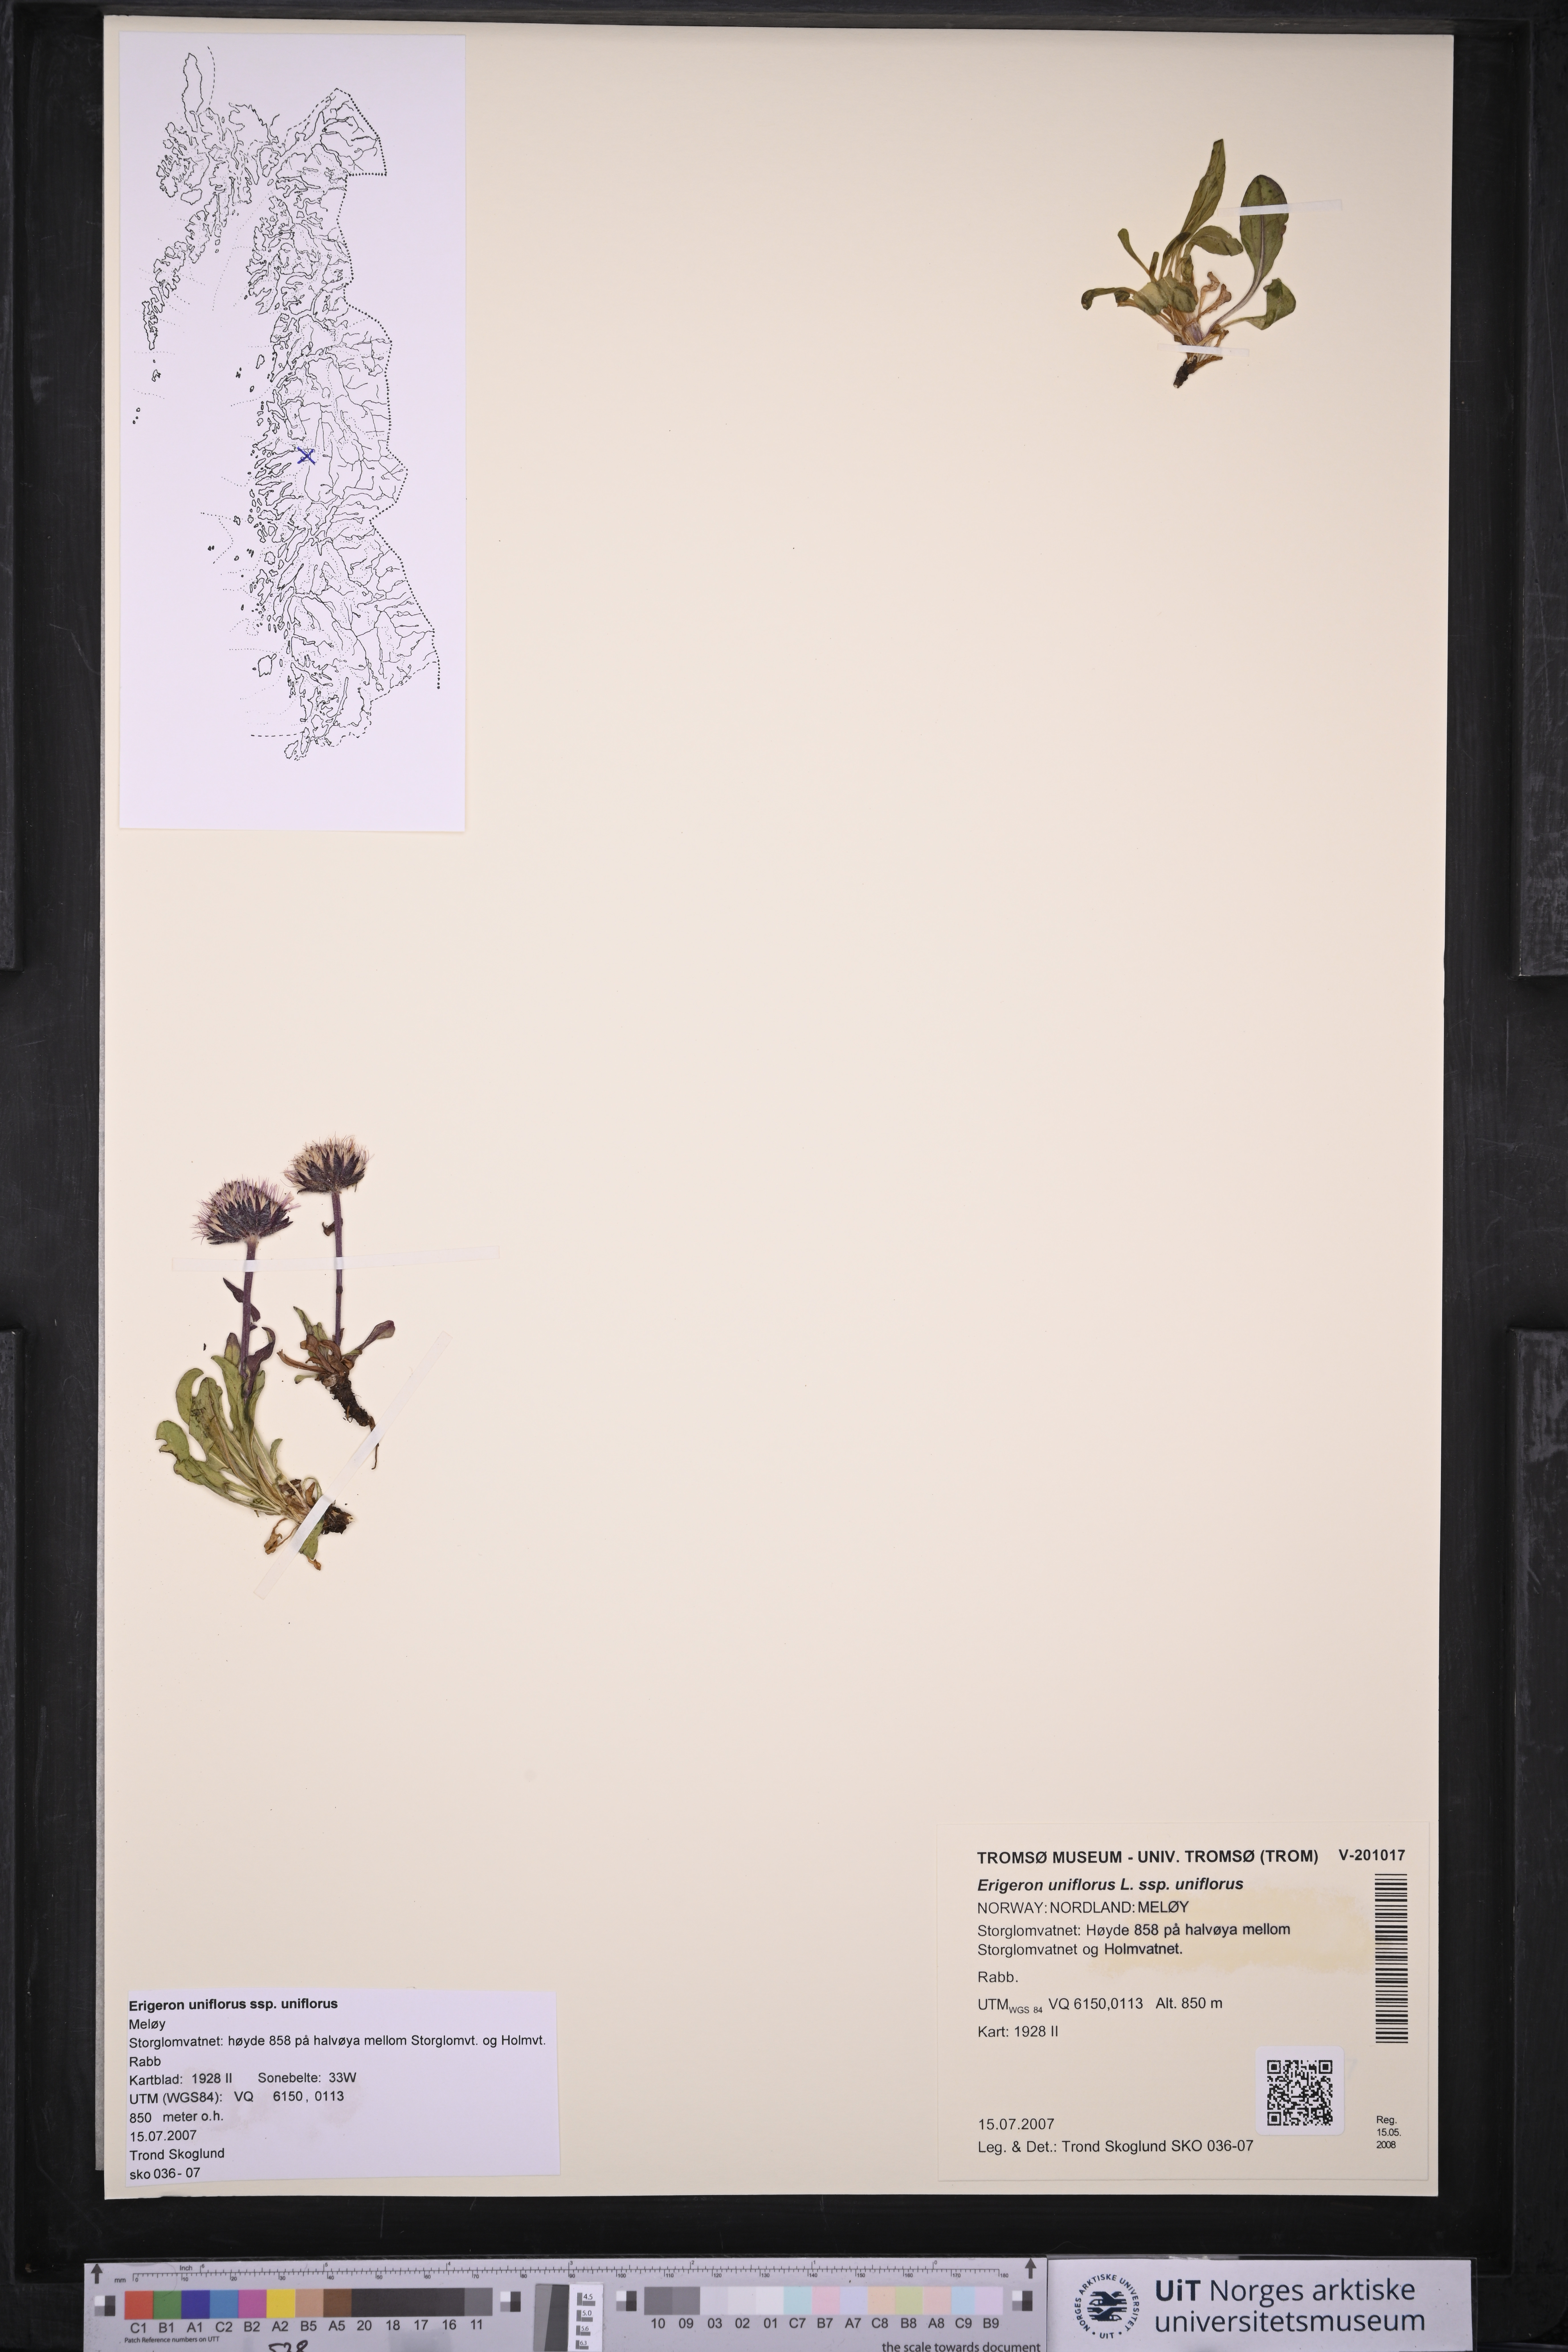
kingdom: Plantae
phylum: Tracheophyta
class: Magnoliopsida
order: Asterales
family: Asteraceae
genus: Erigeron
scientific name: Erigeron uniflorus
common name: Northern daisy
